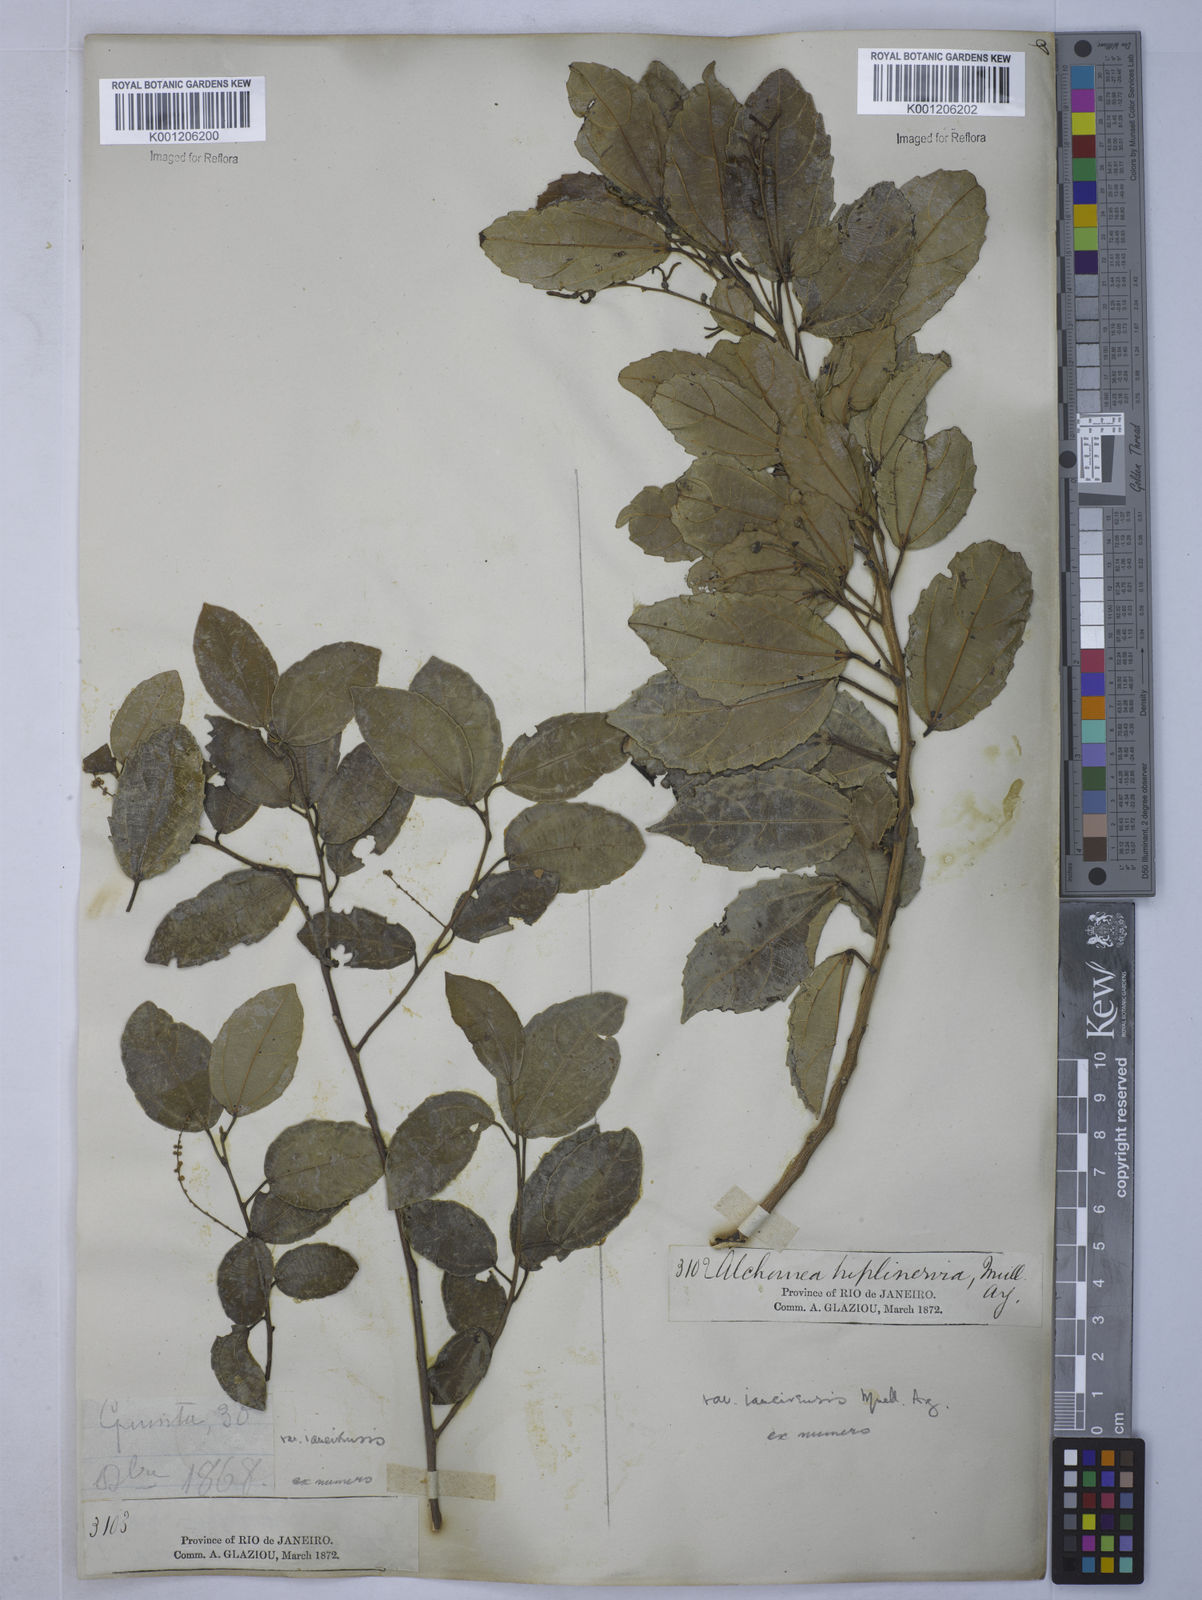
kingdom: Plantae
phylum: Tracheophyta
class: Magnoliopsida
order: Malpighiales
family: Euphorbiaceae
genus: Alchornea
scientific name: Alchornea
